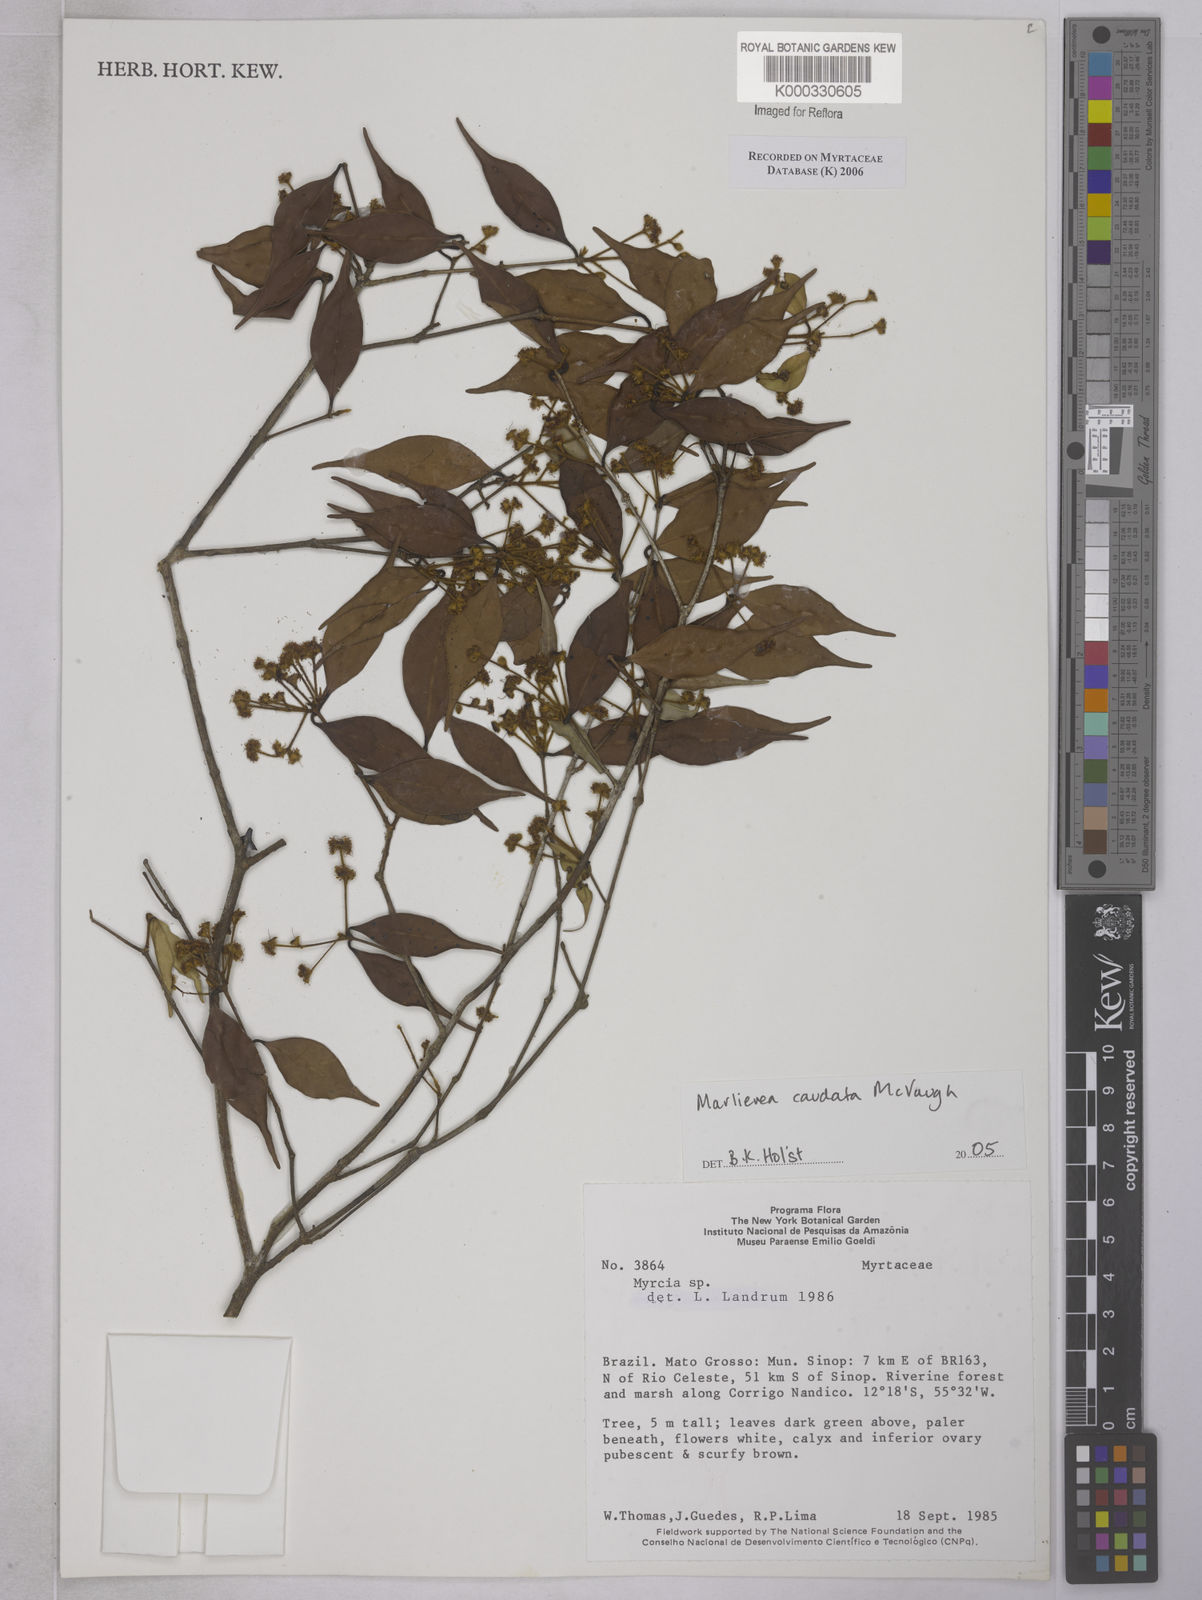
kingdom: Plantae
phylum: Tracheophyta
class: Magnoliopsida
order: Myrtales
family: Myrtaceae
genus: Myrcia
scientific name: Myrcia caudata
